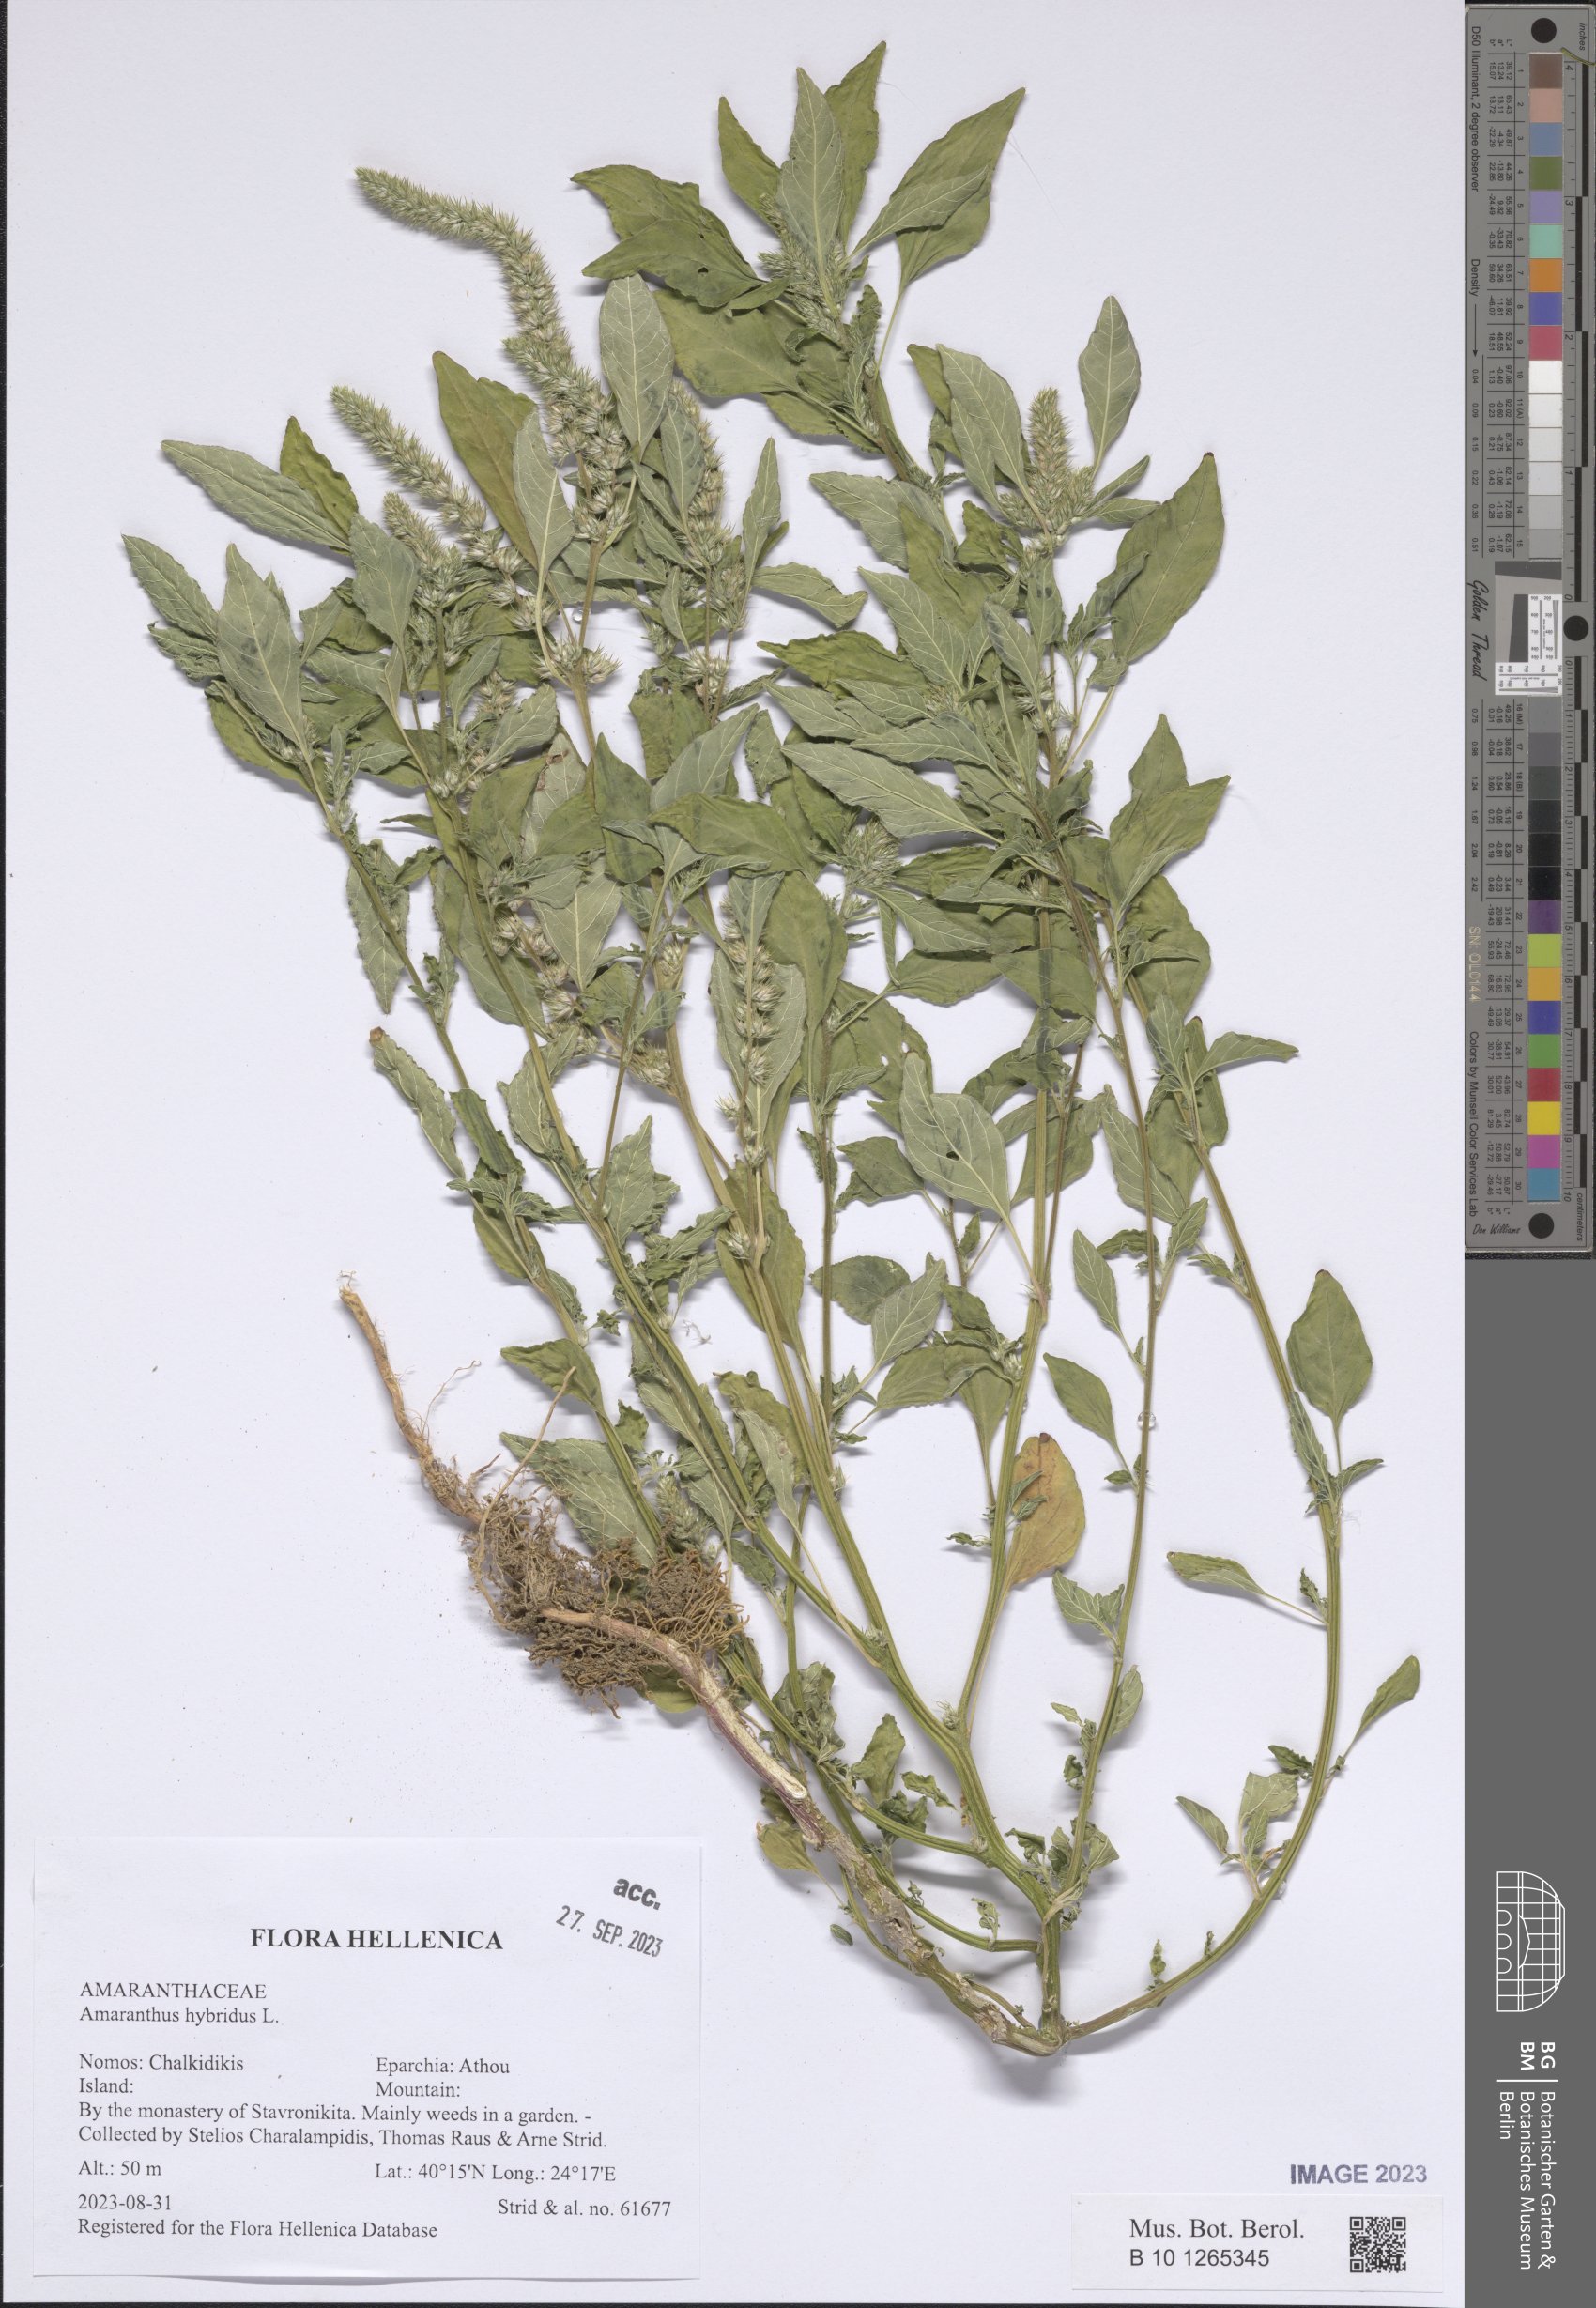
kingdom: Plantae
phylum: Tracheophyta
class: Magnoliopsida
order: Caryophyllales
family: Amaranthaceae
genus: Amaranthus
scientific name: Amaranthus hybridus
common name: Green amaranth
